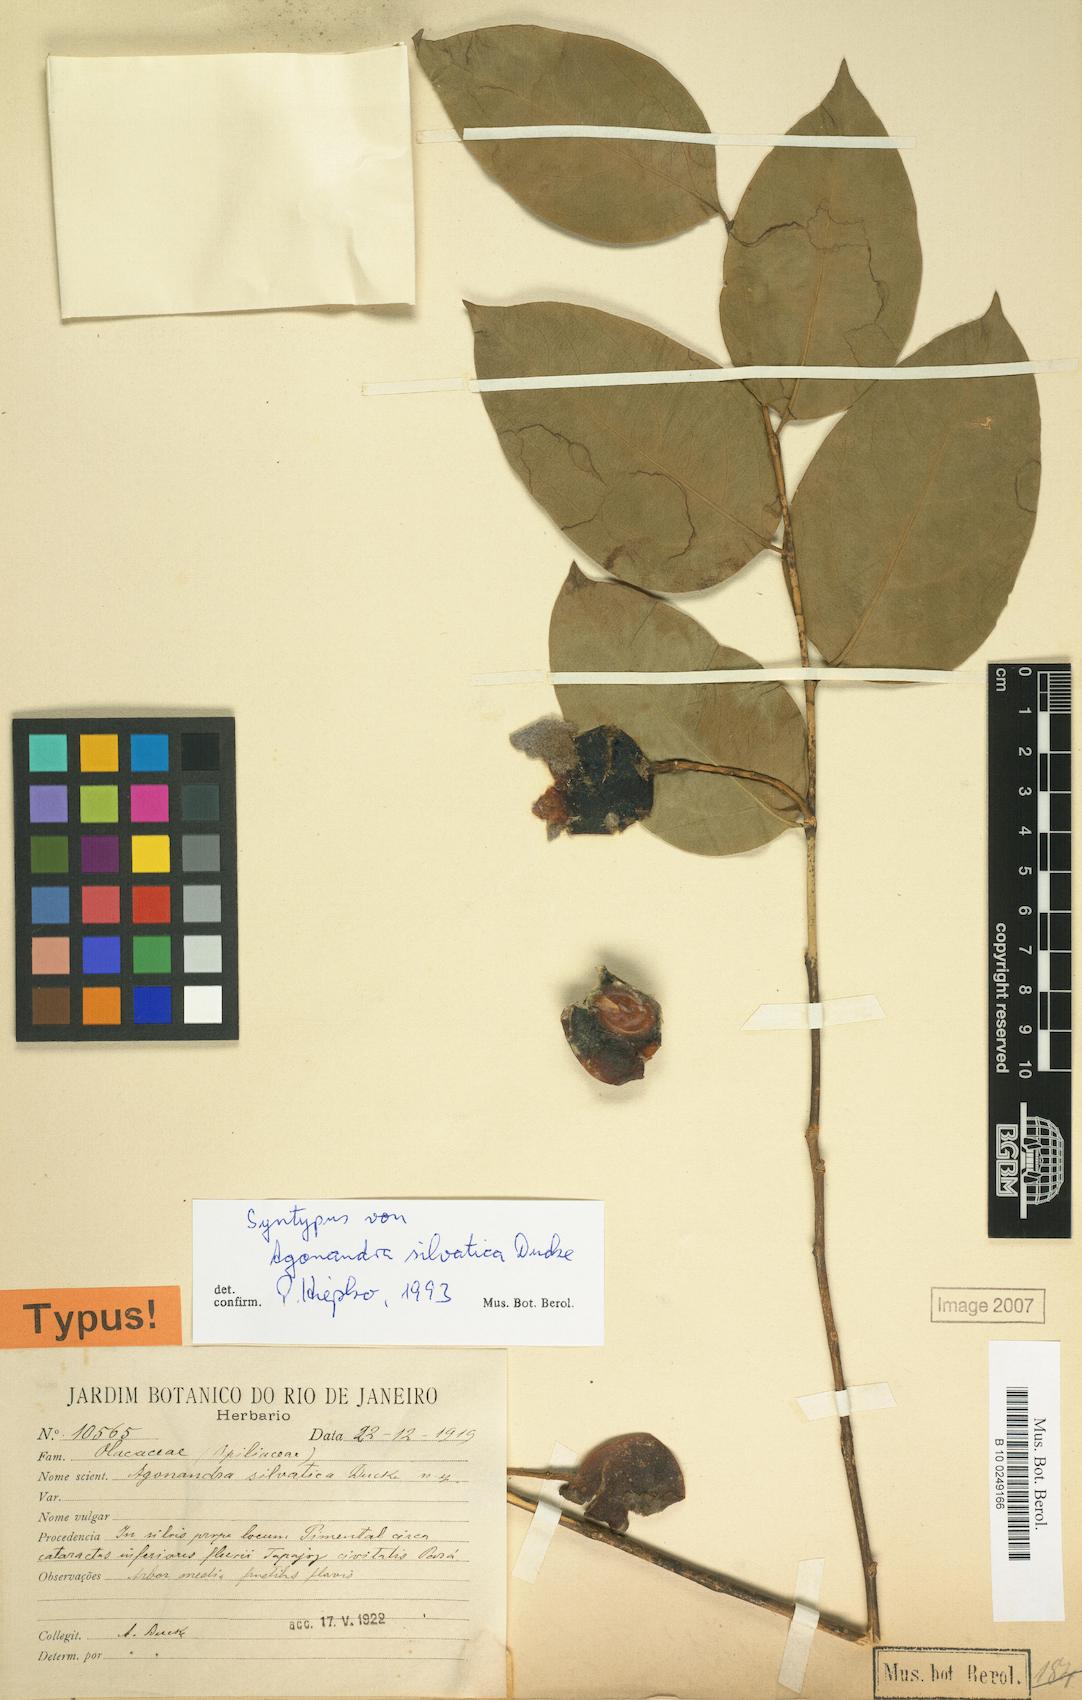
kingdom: Plantae
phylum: Tracheophyta
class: Magnoliopsida
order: Santalales
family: Opiliaceae
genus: Agonandra
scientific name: Agonandra silvatica
